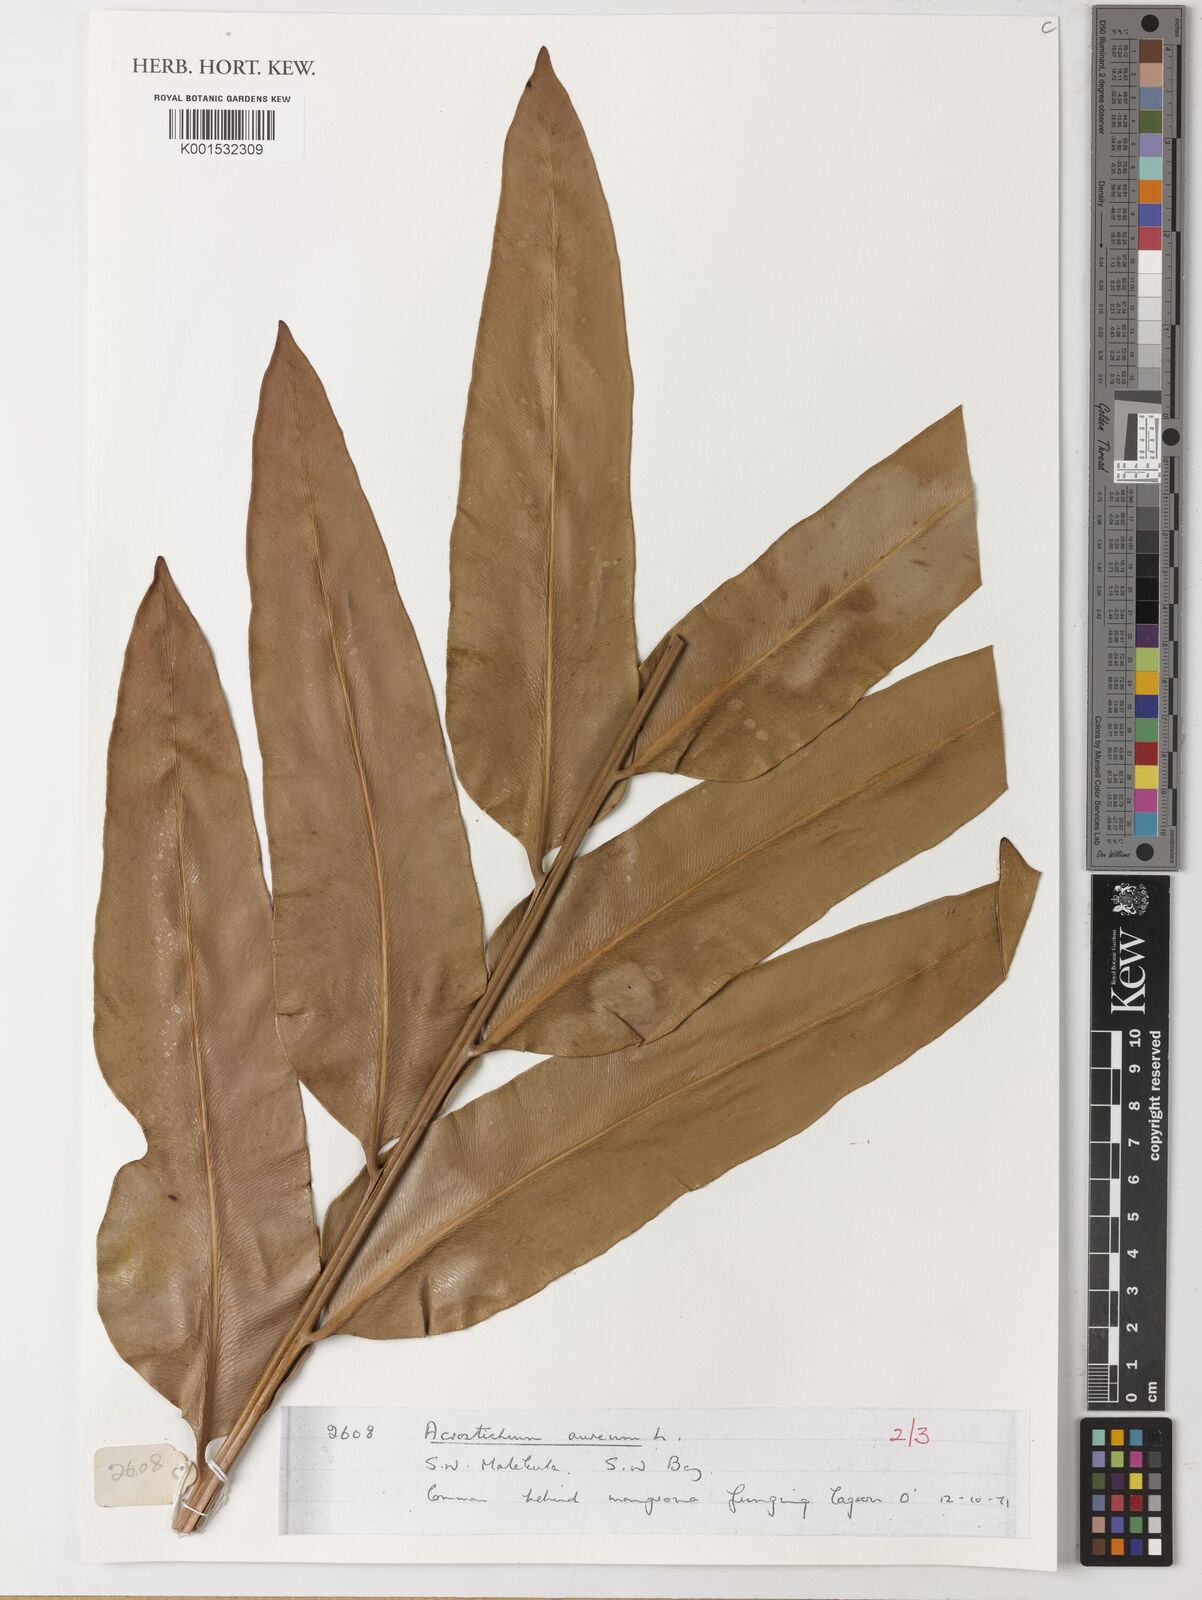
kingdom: Plantae
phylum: Tracheophyta
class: Polypodiopsida
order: Polypodiales
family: Pteridaceae
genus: Acrostichum
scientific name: Acrostichum aureum
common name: Leather fern
